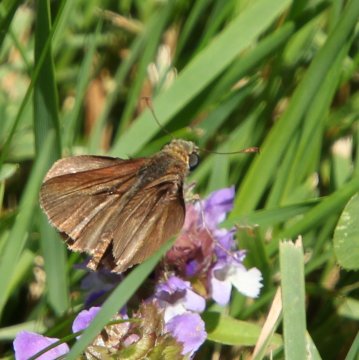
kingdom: Animalia
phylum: Arthropoda
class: Insecta
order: Lepidoptera
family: Hesperiidae
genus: Euphyes
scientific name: Euphyes vestris
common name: Dun Skipper
